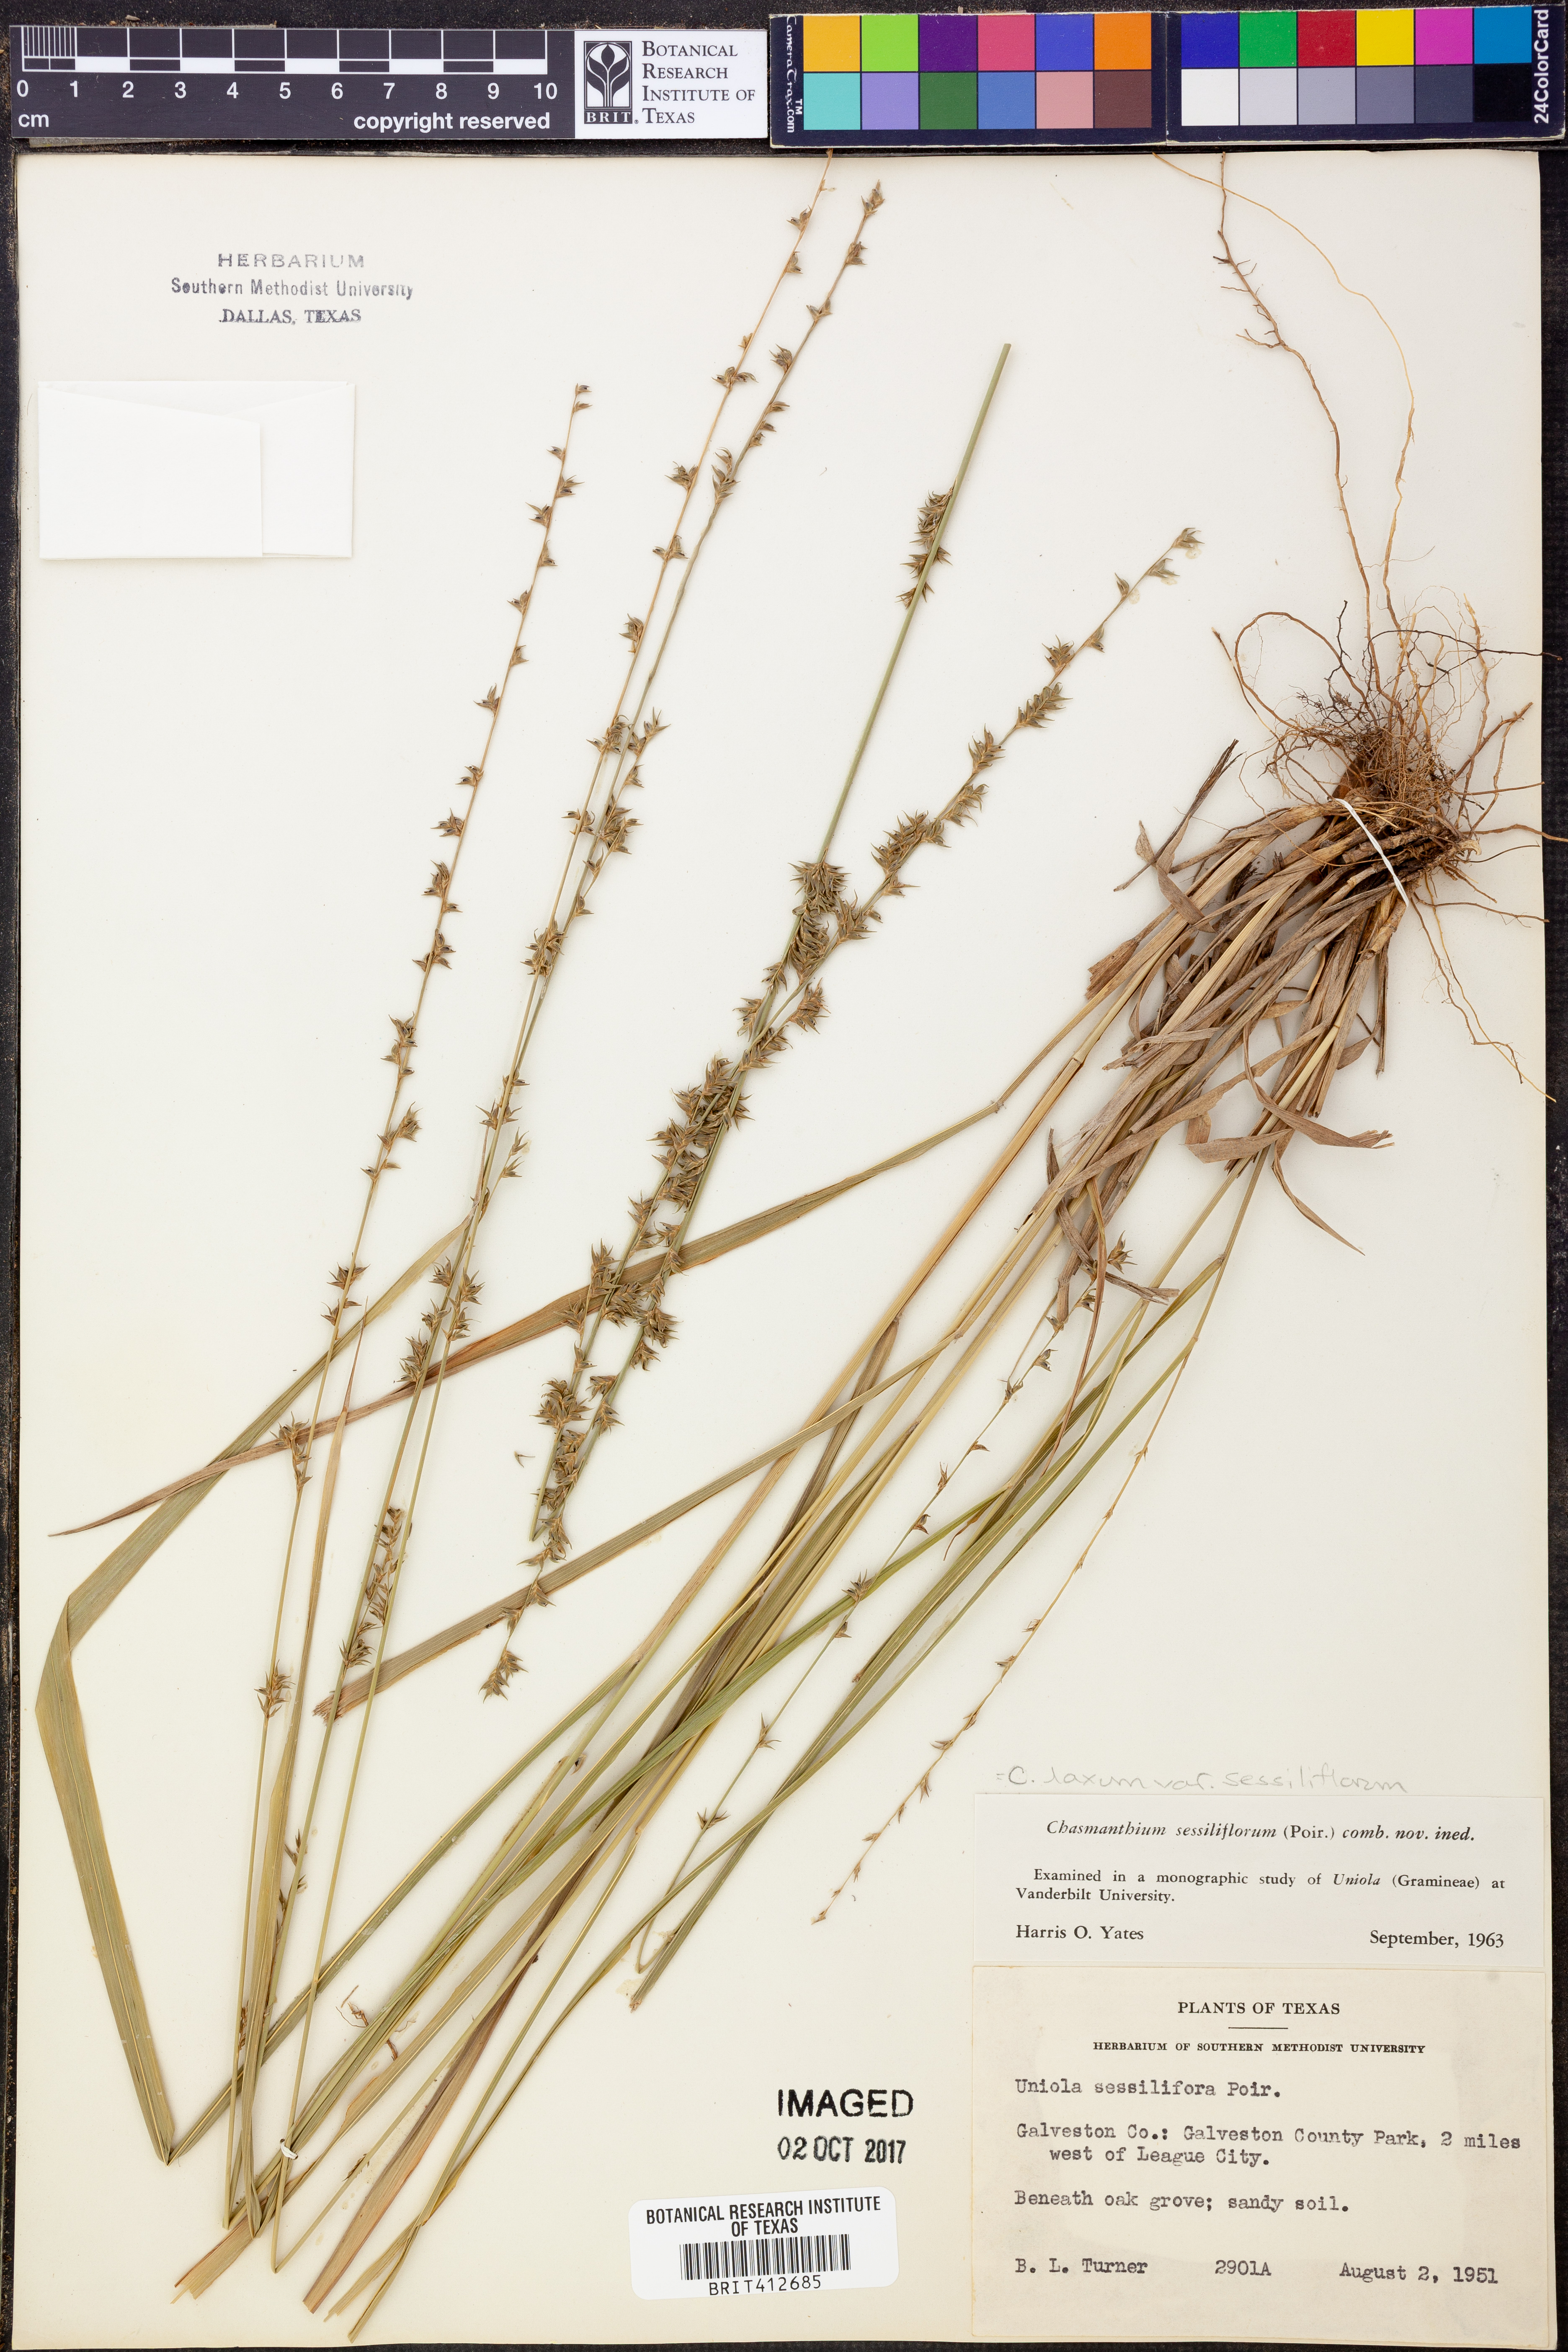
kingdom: Plantae
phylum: Tracheophyta
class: Liliopsida
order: Poales
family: Poaceae
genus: Chasmanthium
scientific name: Chasmanthium laxum
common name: Slender chasmanthium
